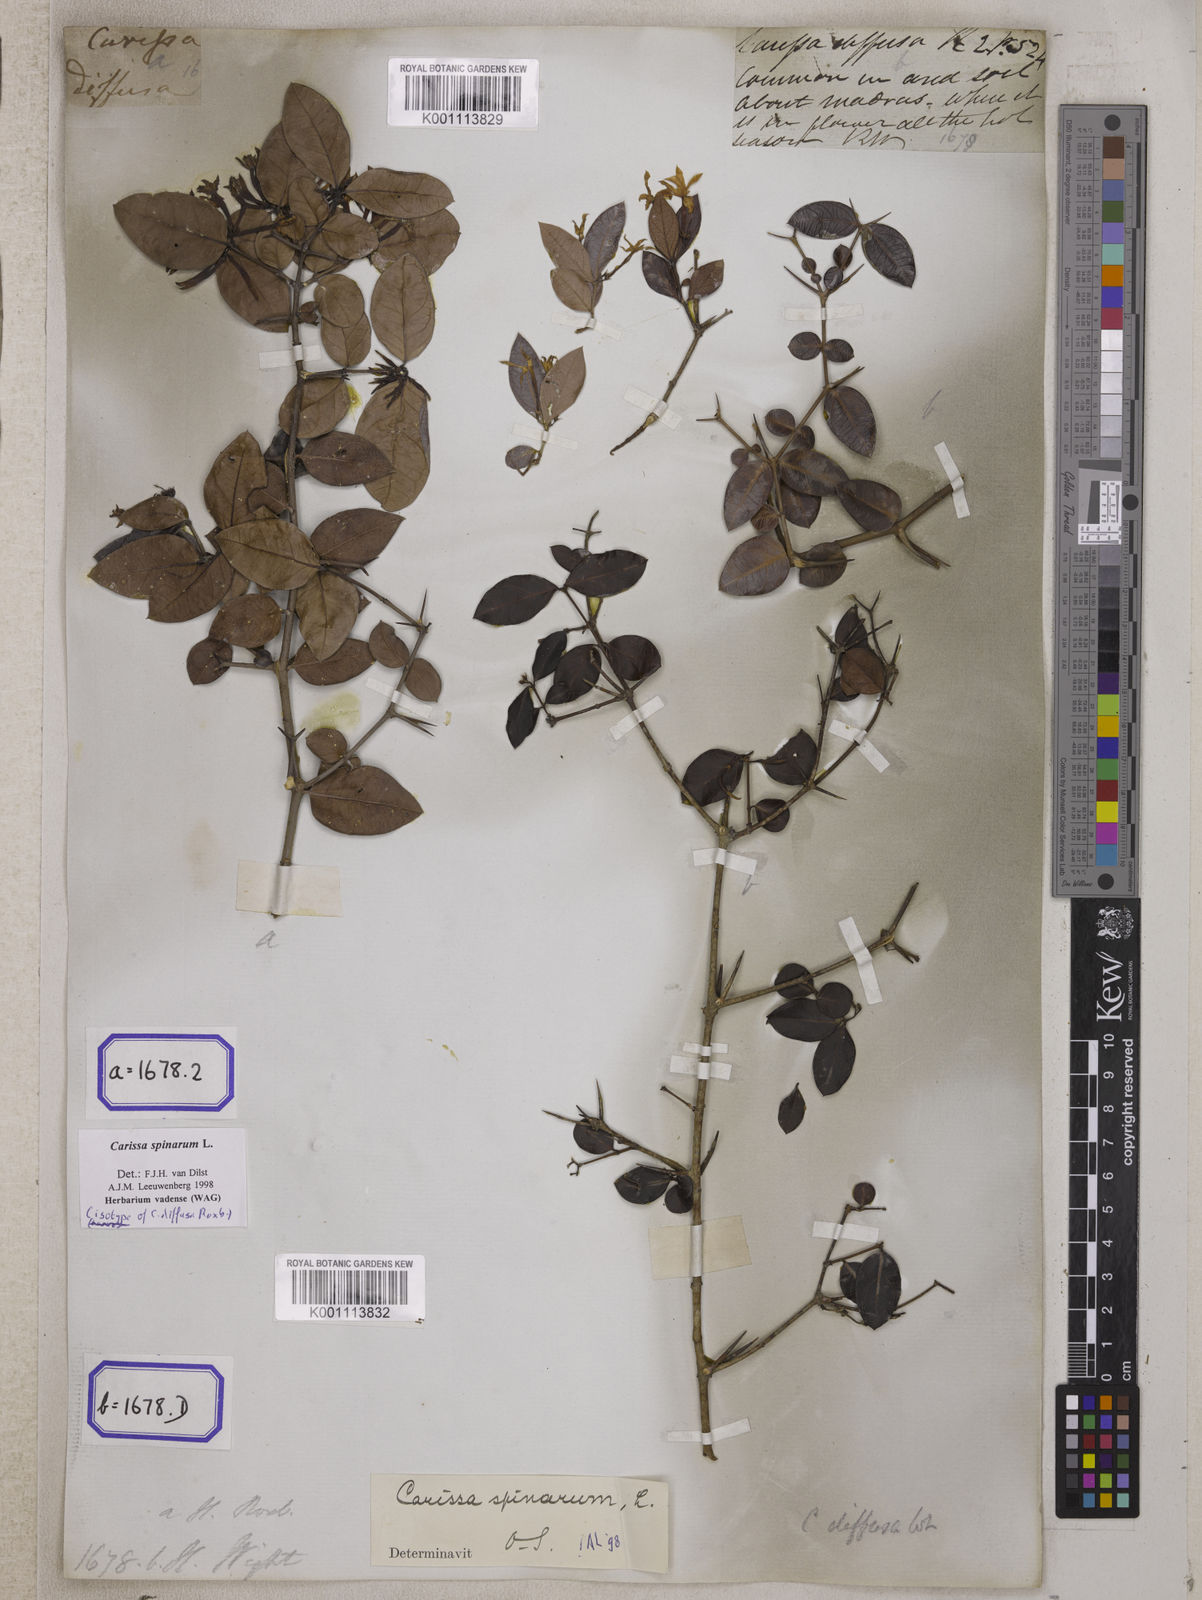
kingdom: Plantae
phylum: Tracheophyta
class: Magnoliopsida
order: Gentianales
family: Apocynaceae
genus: Carissa
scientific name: Carissa spinarum
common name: Egyptian carissa
